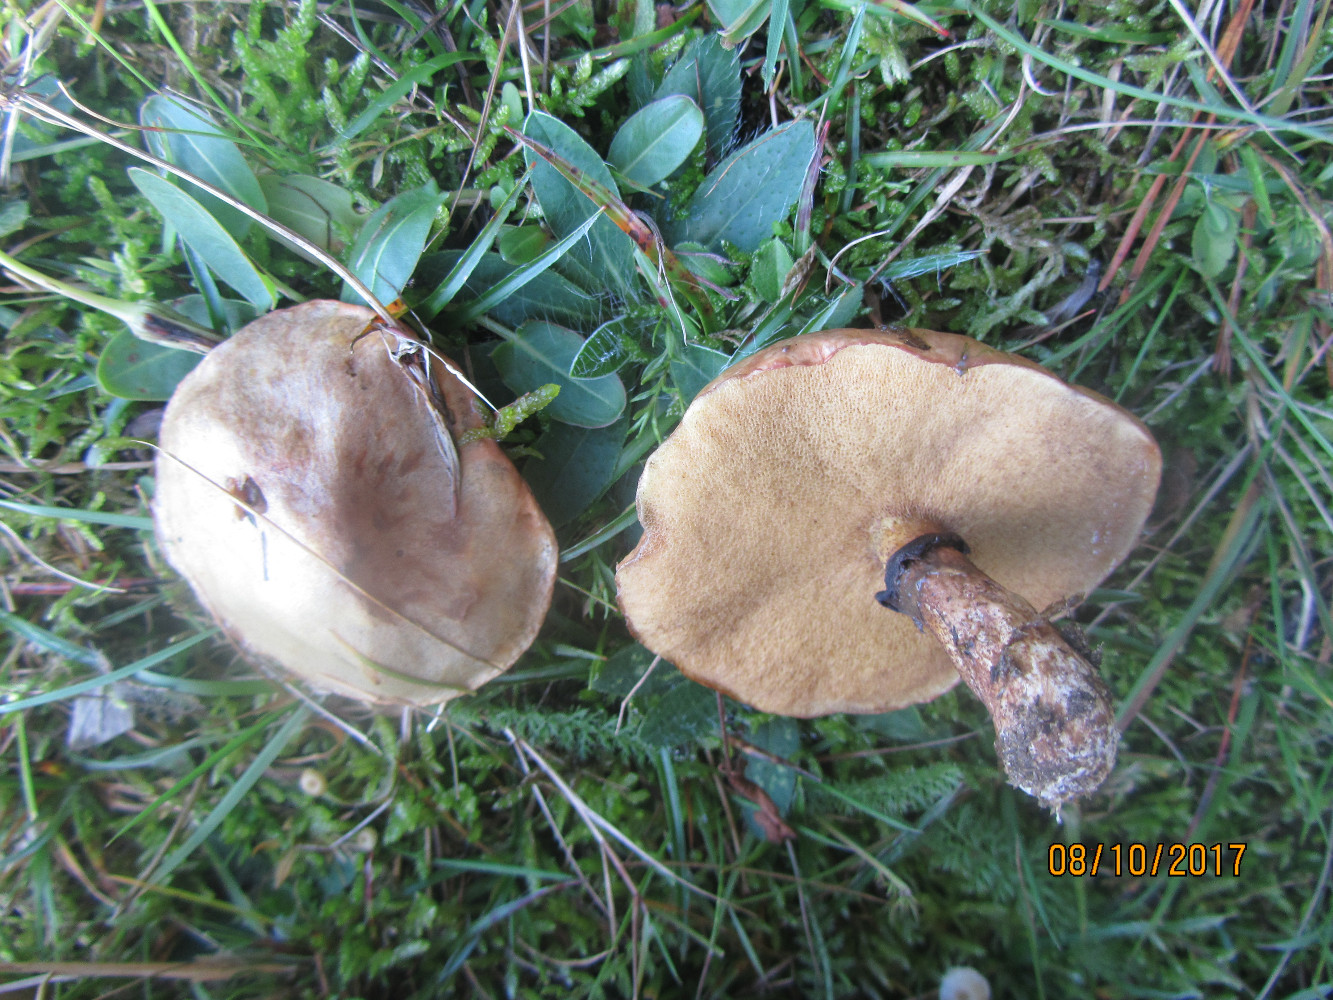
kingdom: Fungi
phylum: Basidiomycota
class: Agaricomycetes
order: Boletales
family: Suillaceae
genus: Suillus
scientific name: Suillus luteus
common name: brungul slimrørhat
